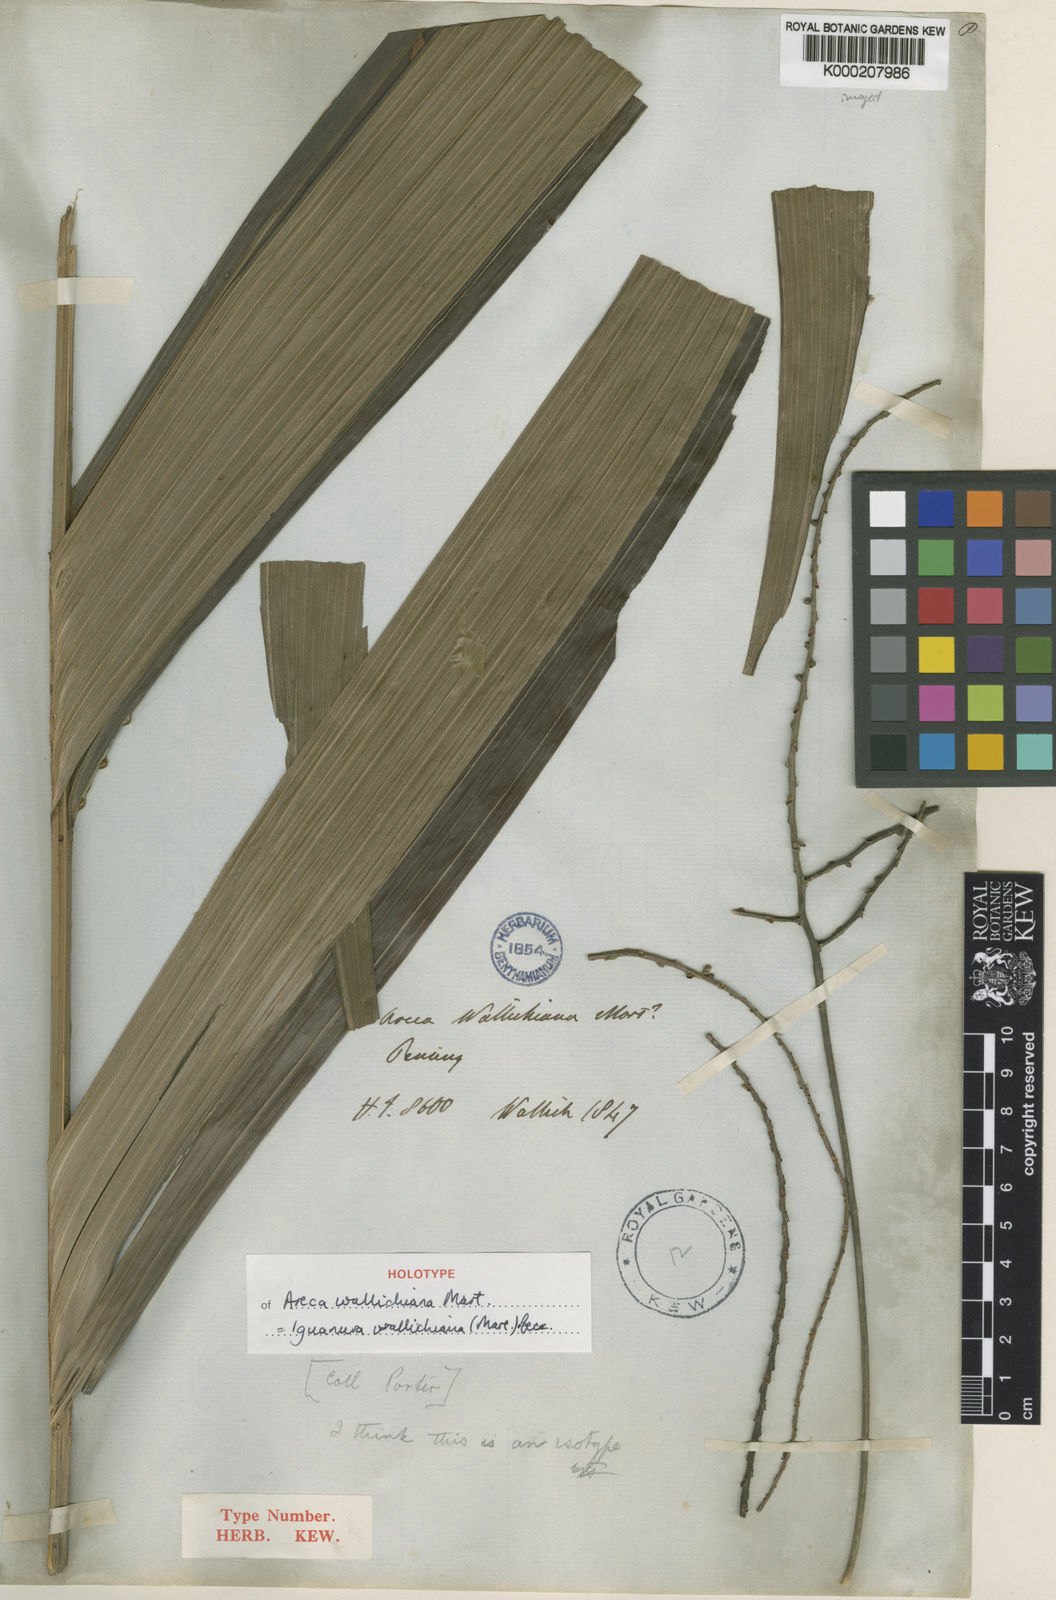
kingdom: Plantae
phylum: Tracheophyta
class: Liliopsida
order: Arecales
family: Arecaceae
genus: Iguanura
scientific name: Iguanura wallichiana
